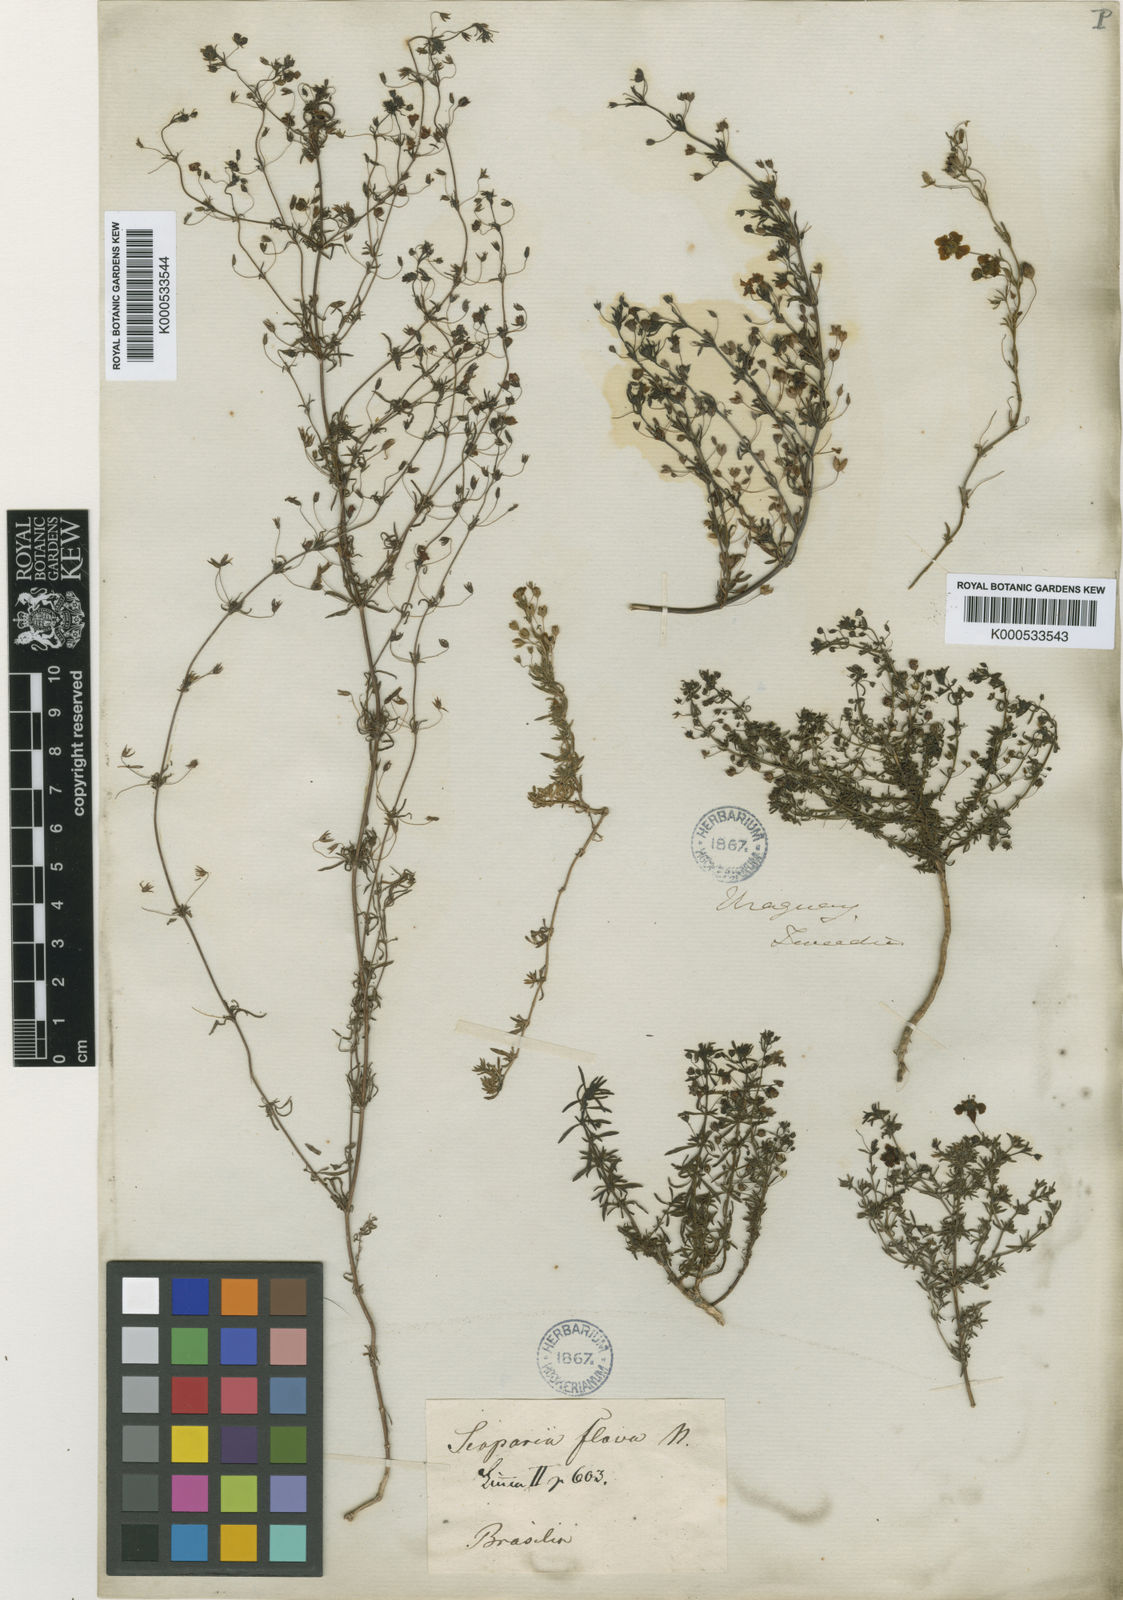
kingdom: Plantae
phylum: Tracheophyta
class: Magnoliopsida
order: Lamiales
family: Plantaginaceae
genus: Scoparia
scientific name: Scoparia montevidensis
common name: Broomwort
